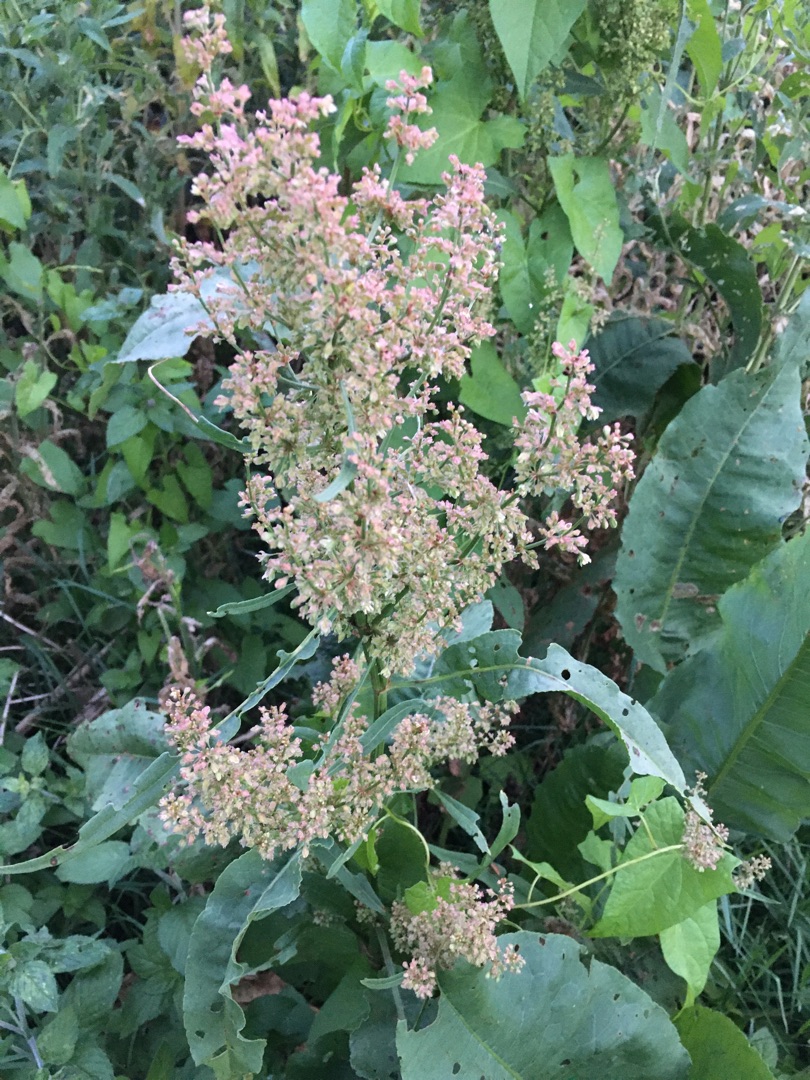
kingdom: Plantae
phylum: Tracheophyta
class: Magnoliopsida
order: Caryophyllales
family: Polygonaceae
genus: Rumex
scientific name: Rumex hydrolapathum
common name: Vand-skræppe
